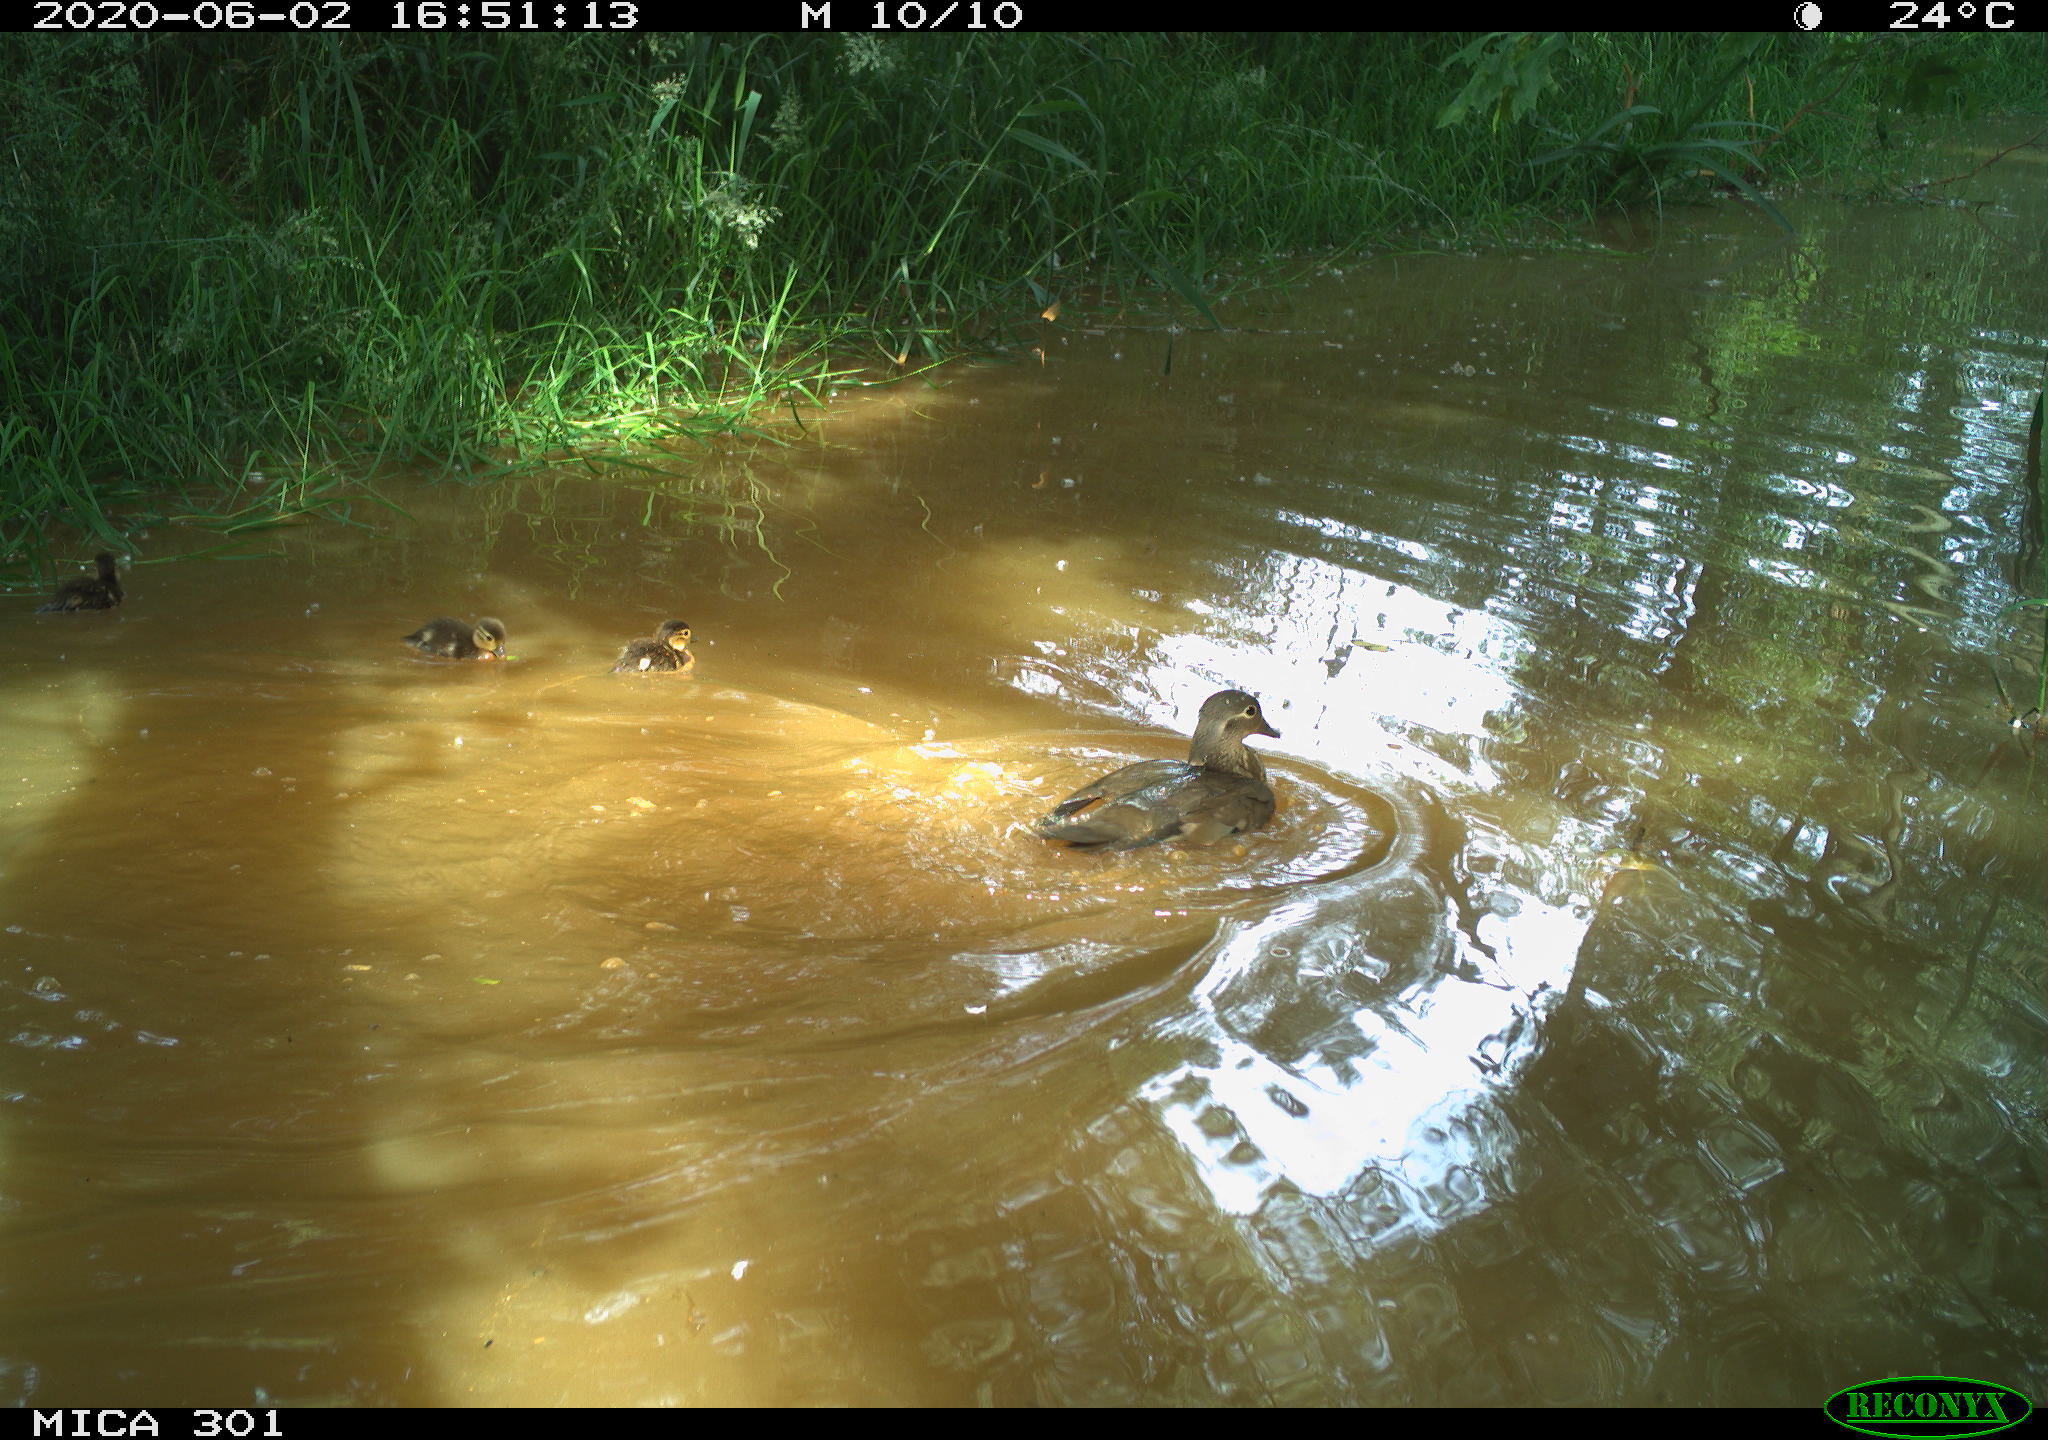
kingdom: Animalia
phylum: Chordata
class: Aves
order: Anseriformes
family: Anatidae
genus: Aix
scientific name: Aix galericulata
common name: Mandarin duck
